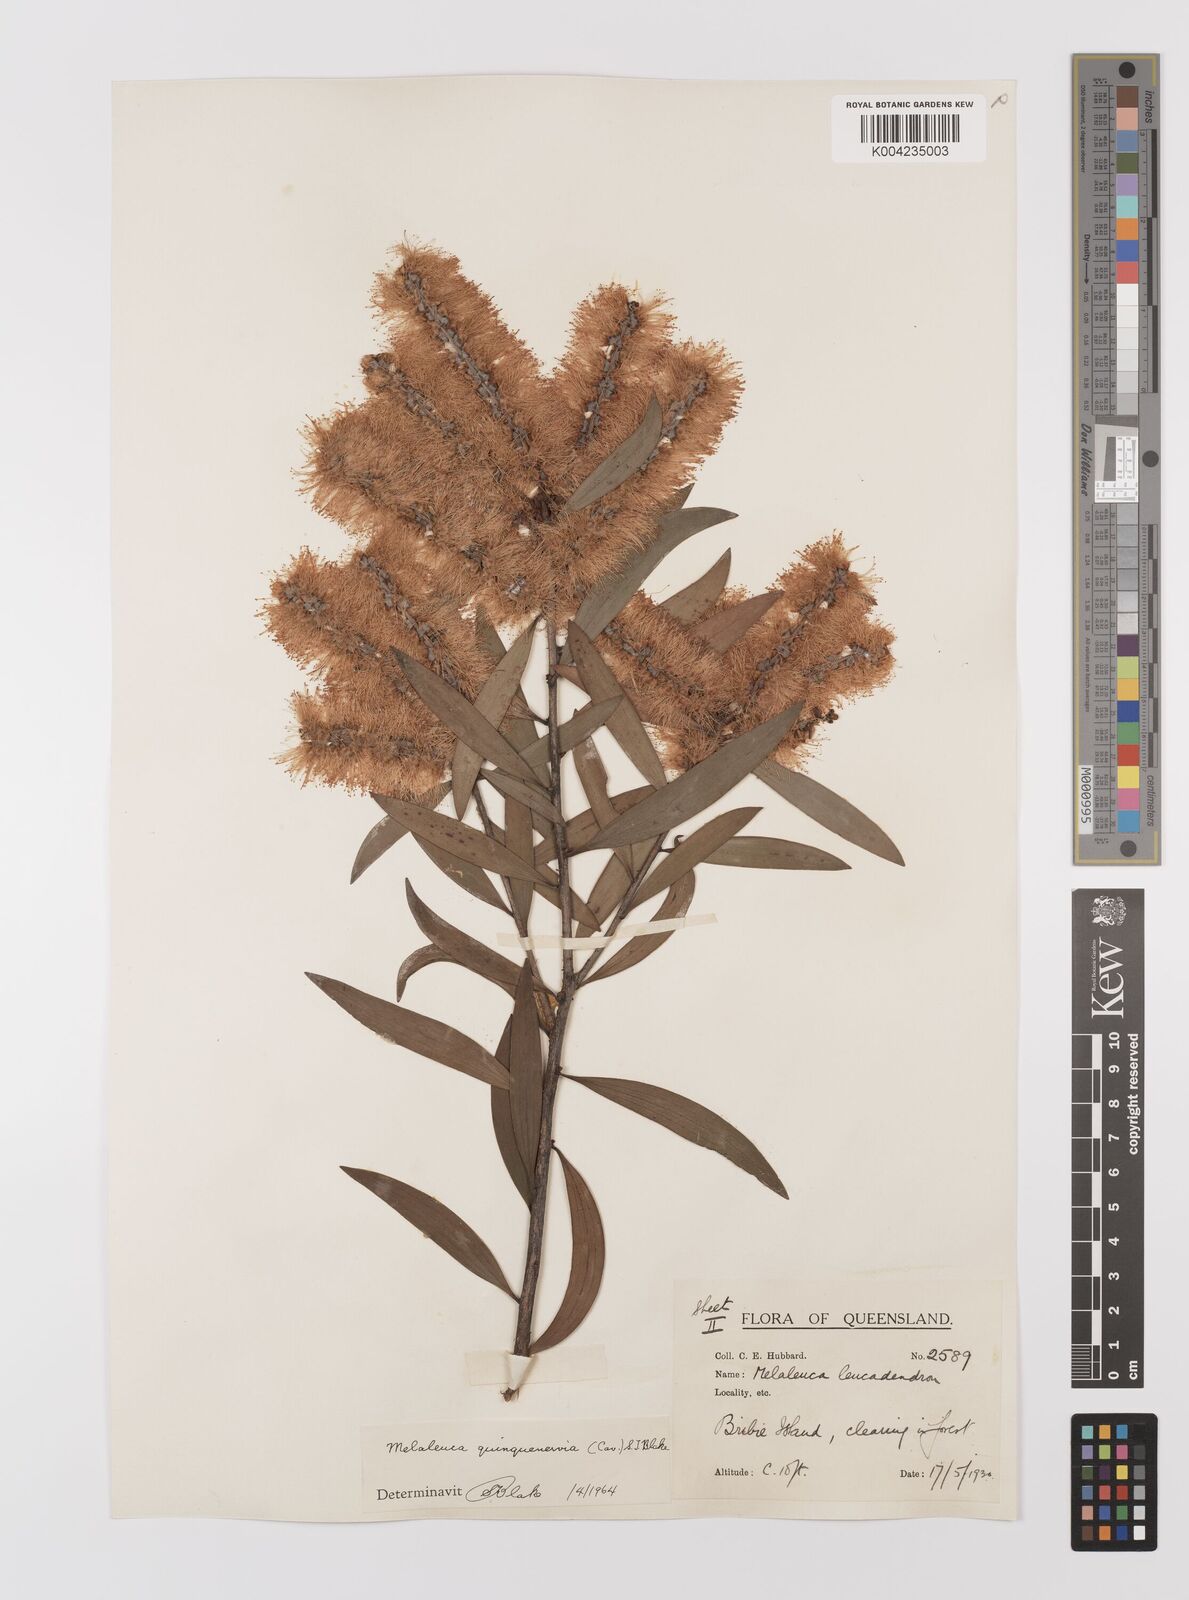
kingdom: Plantae
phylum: Tracheophyta
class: Magnoliopsida
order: Myrtales
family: Myrtaceae
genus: Melaleuca
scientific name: Melaleuca quinquenervia
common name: Punktree
